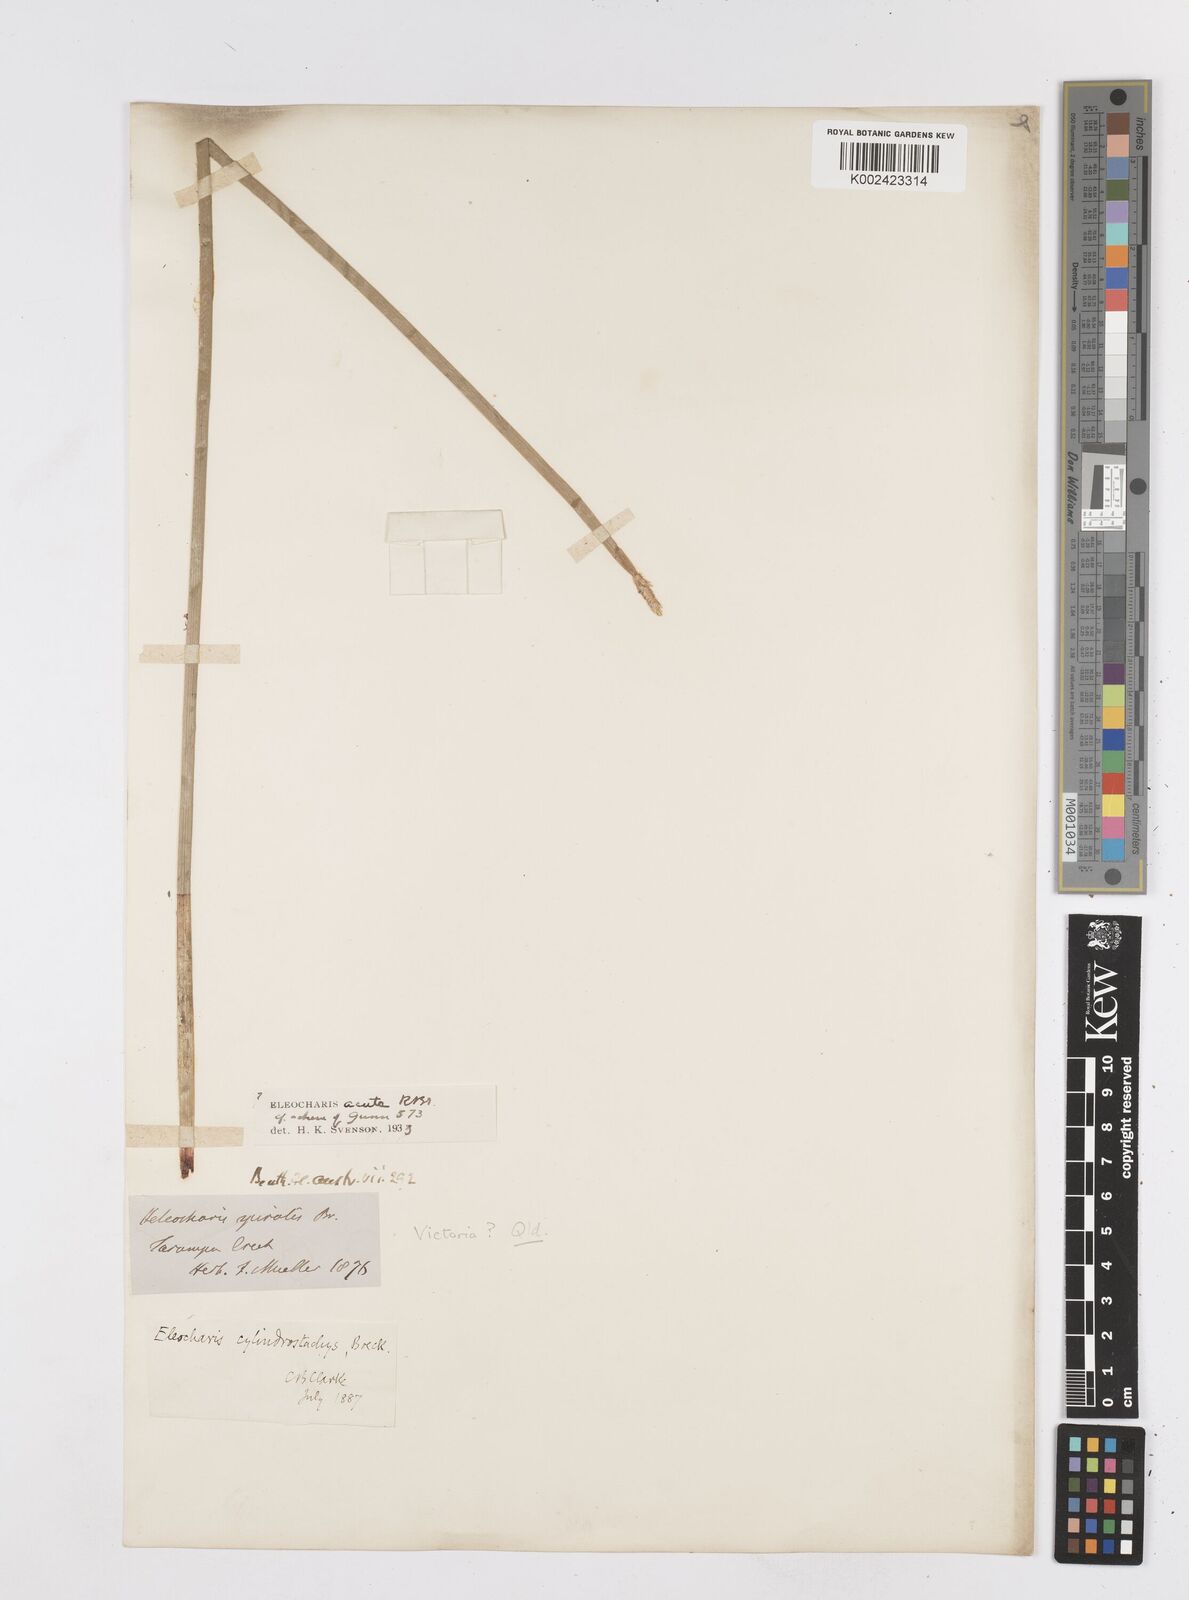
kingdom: Plantae
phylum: Tracheophyta
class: Liliopsida
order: Poales
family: Cyperaceae
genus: Eleocharis
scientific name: Eleocharis cylindrostachys
